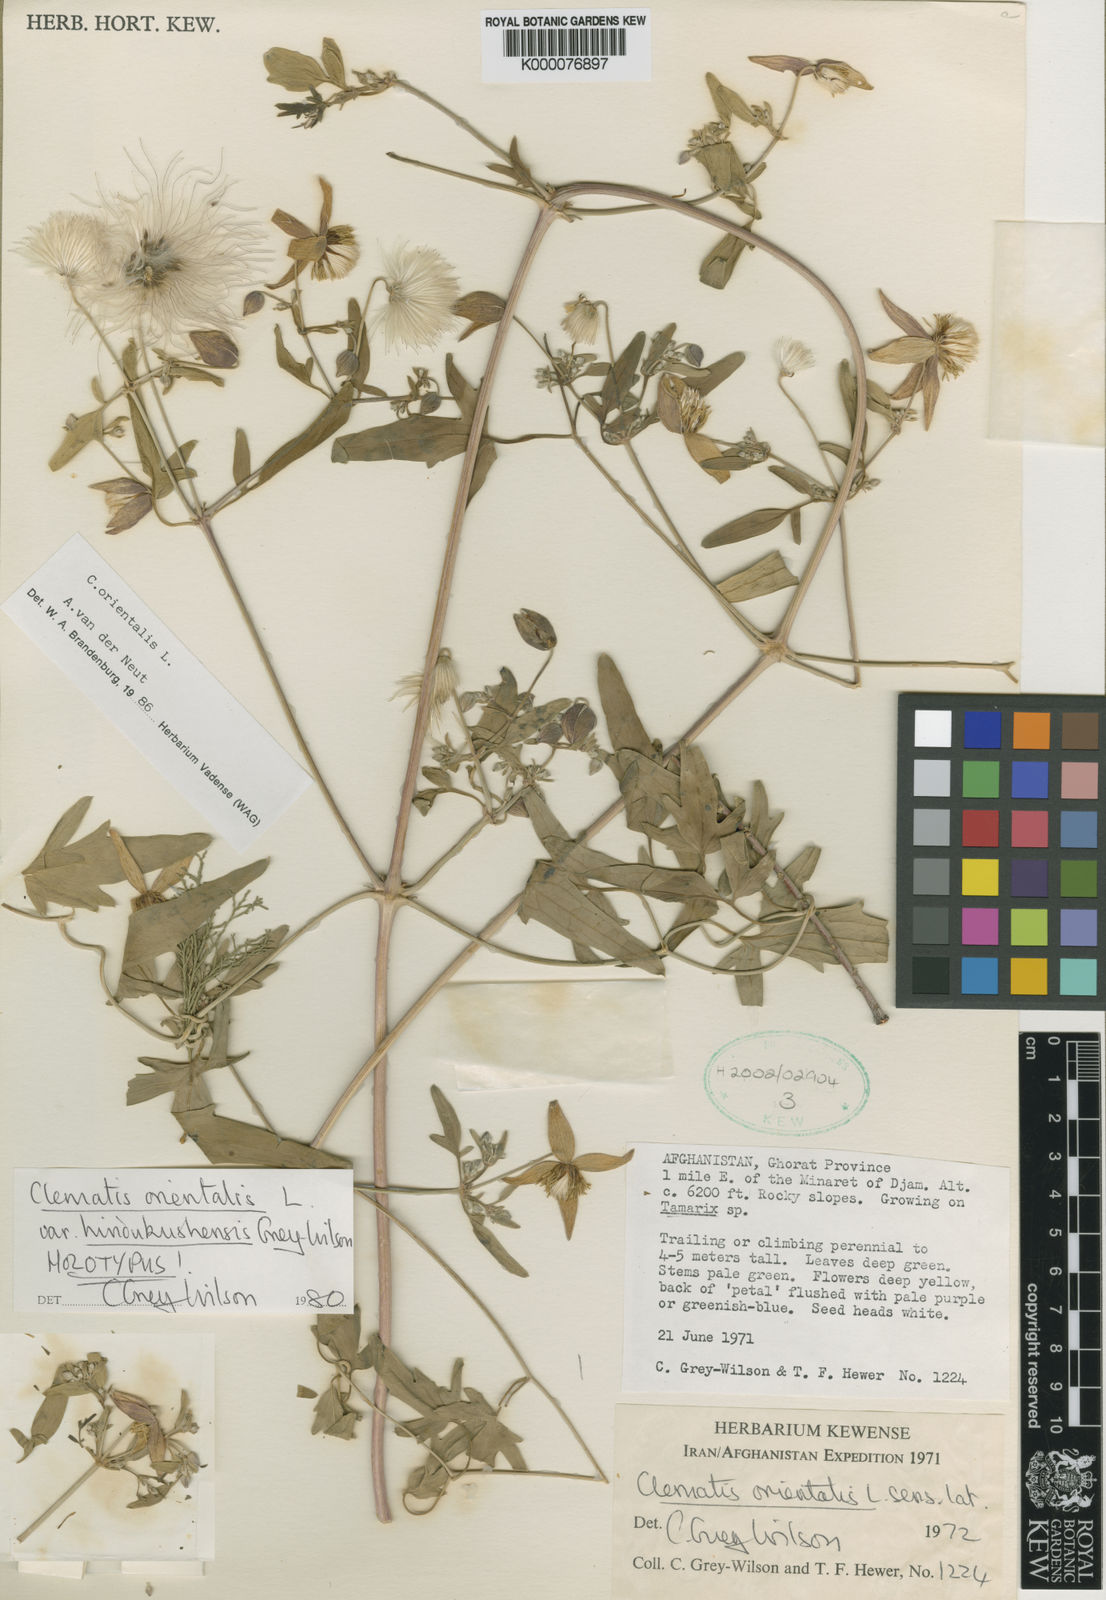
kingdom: Plantae
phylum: Tracheophyta
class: Magnoliopsida
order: Ranunculales
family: Ranunculaceae
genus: Clematis
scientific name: Clematis orientalis
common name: Oriental virgin's-bower
